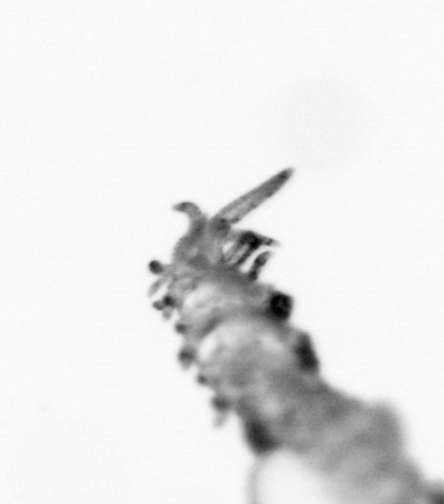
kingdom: Animalia
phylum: Annelida
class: Polychaeta
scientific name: Polychaeta
